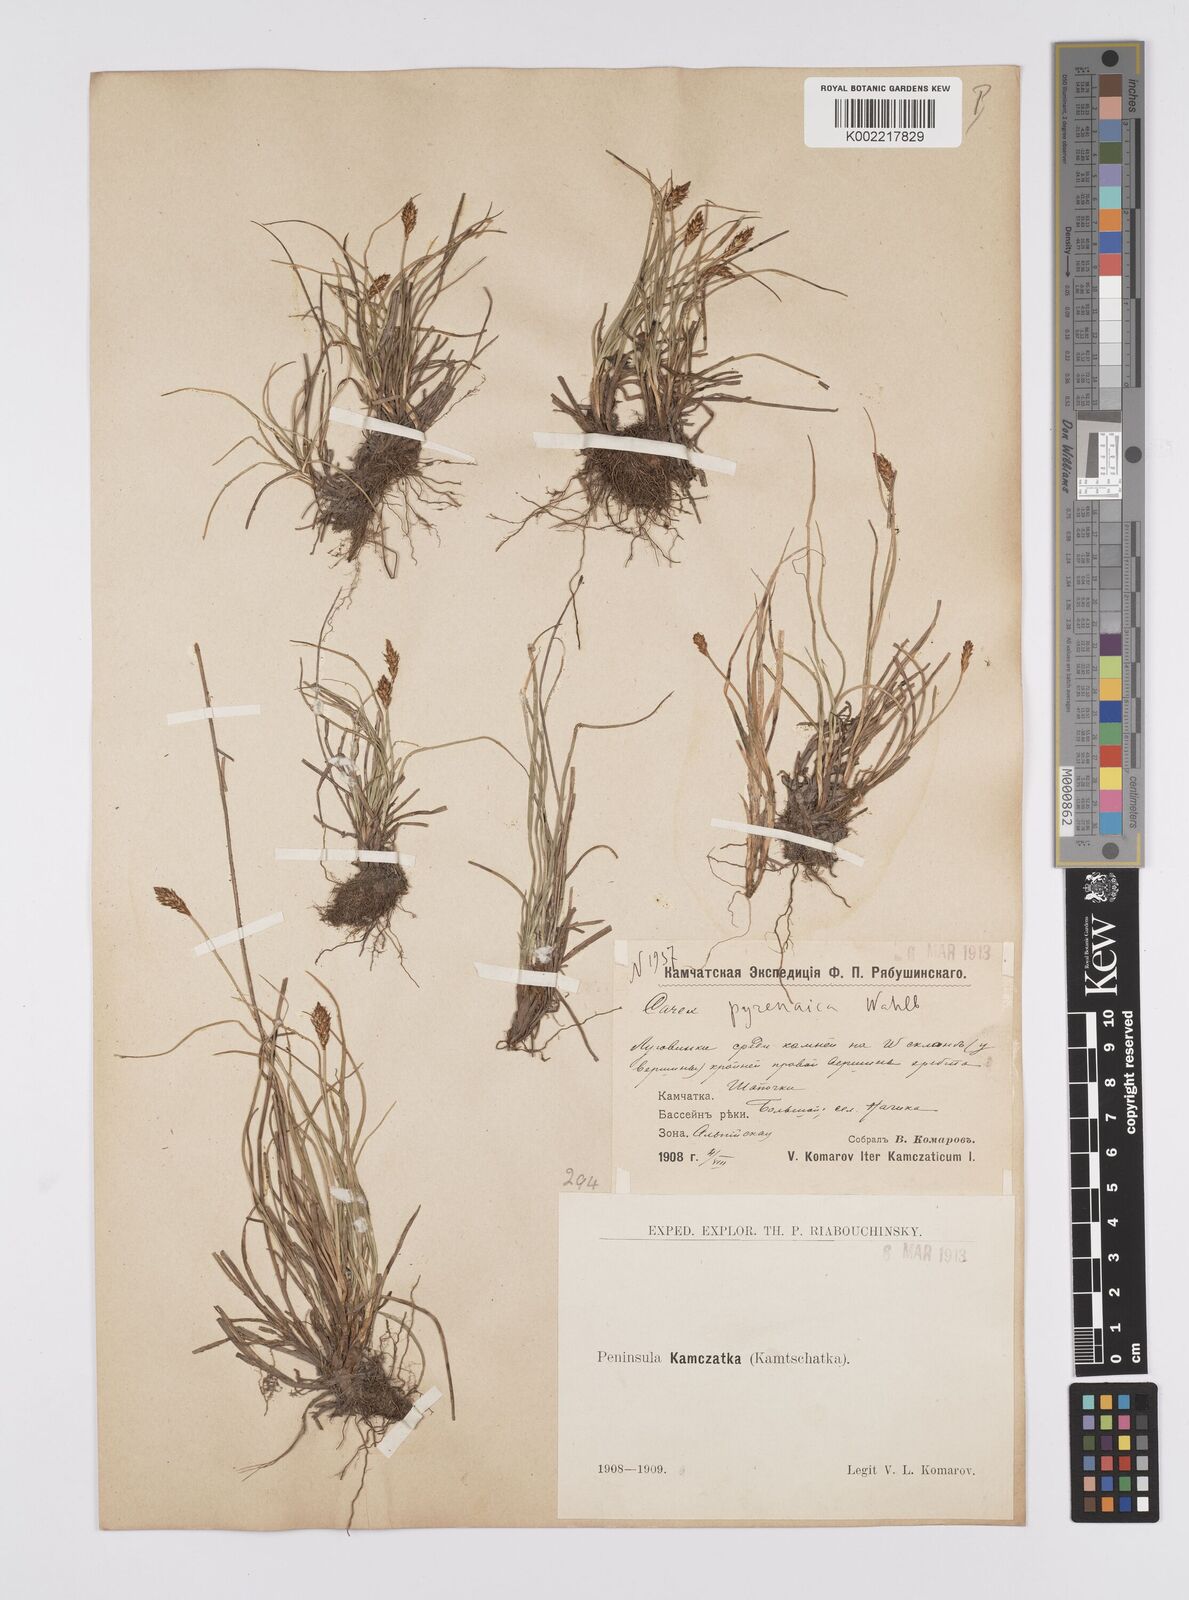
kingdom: Plantae
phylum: Tracheophyta
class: Liliopsida
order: Poales
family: Cyperaceae
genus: Carex
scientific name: Carex pyrenaica
